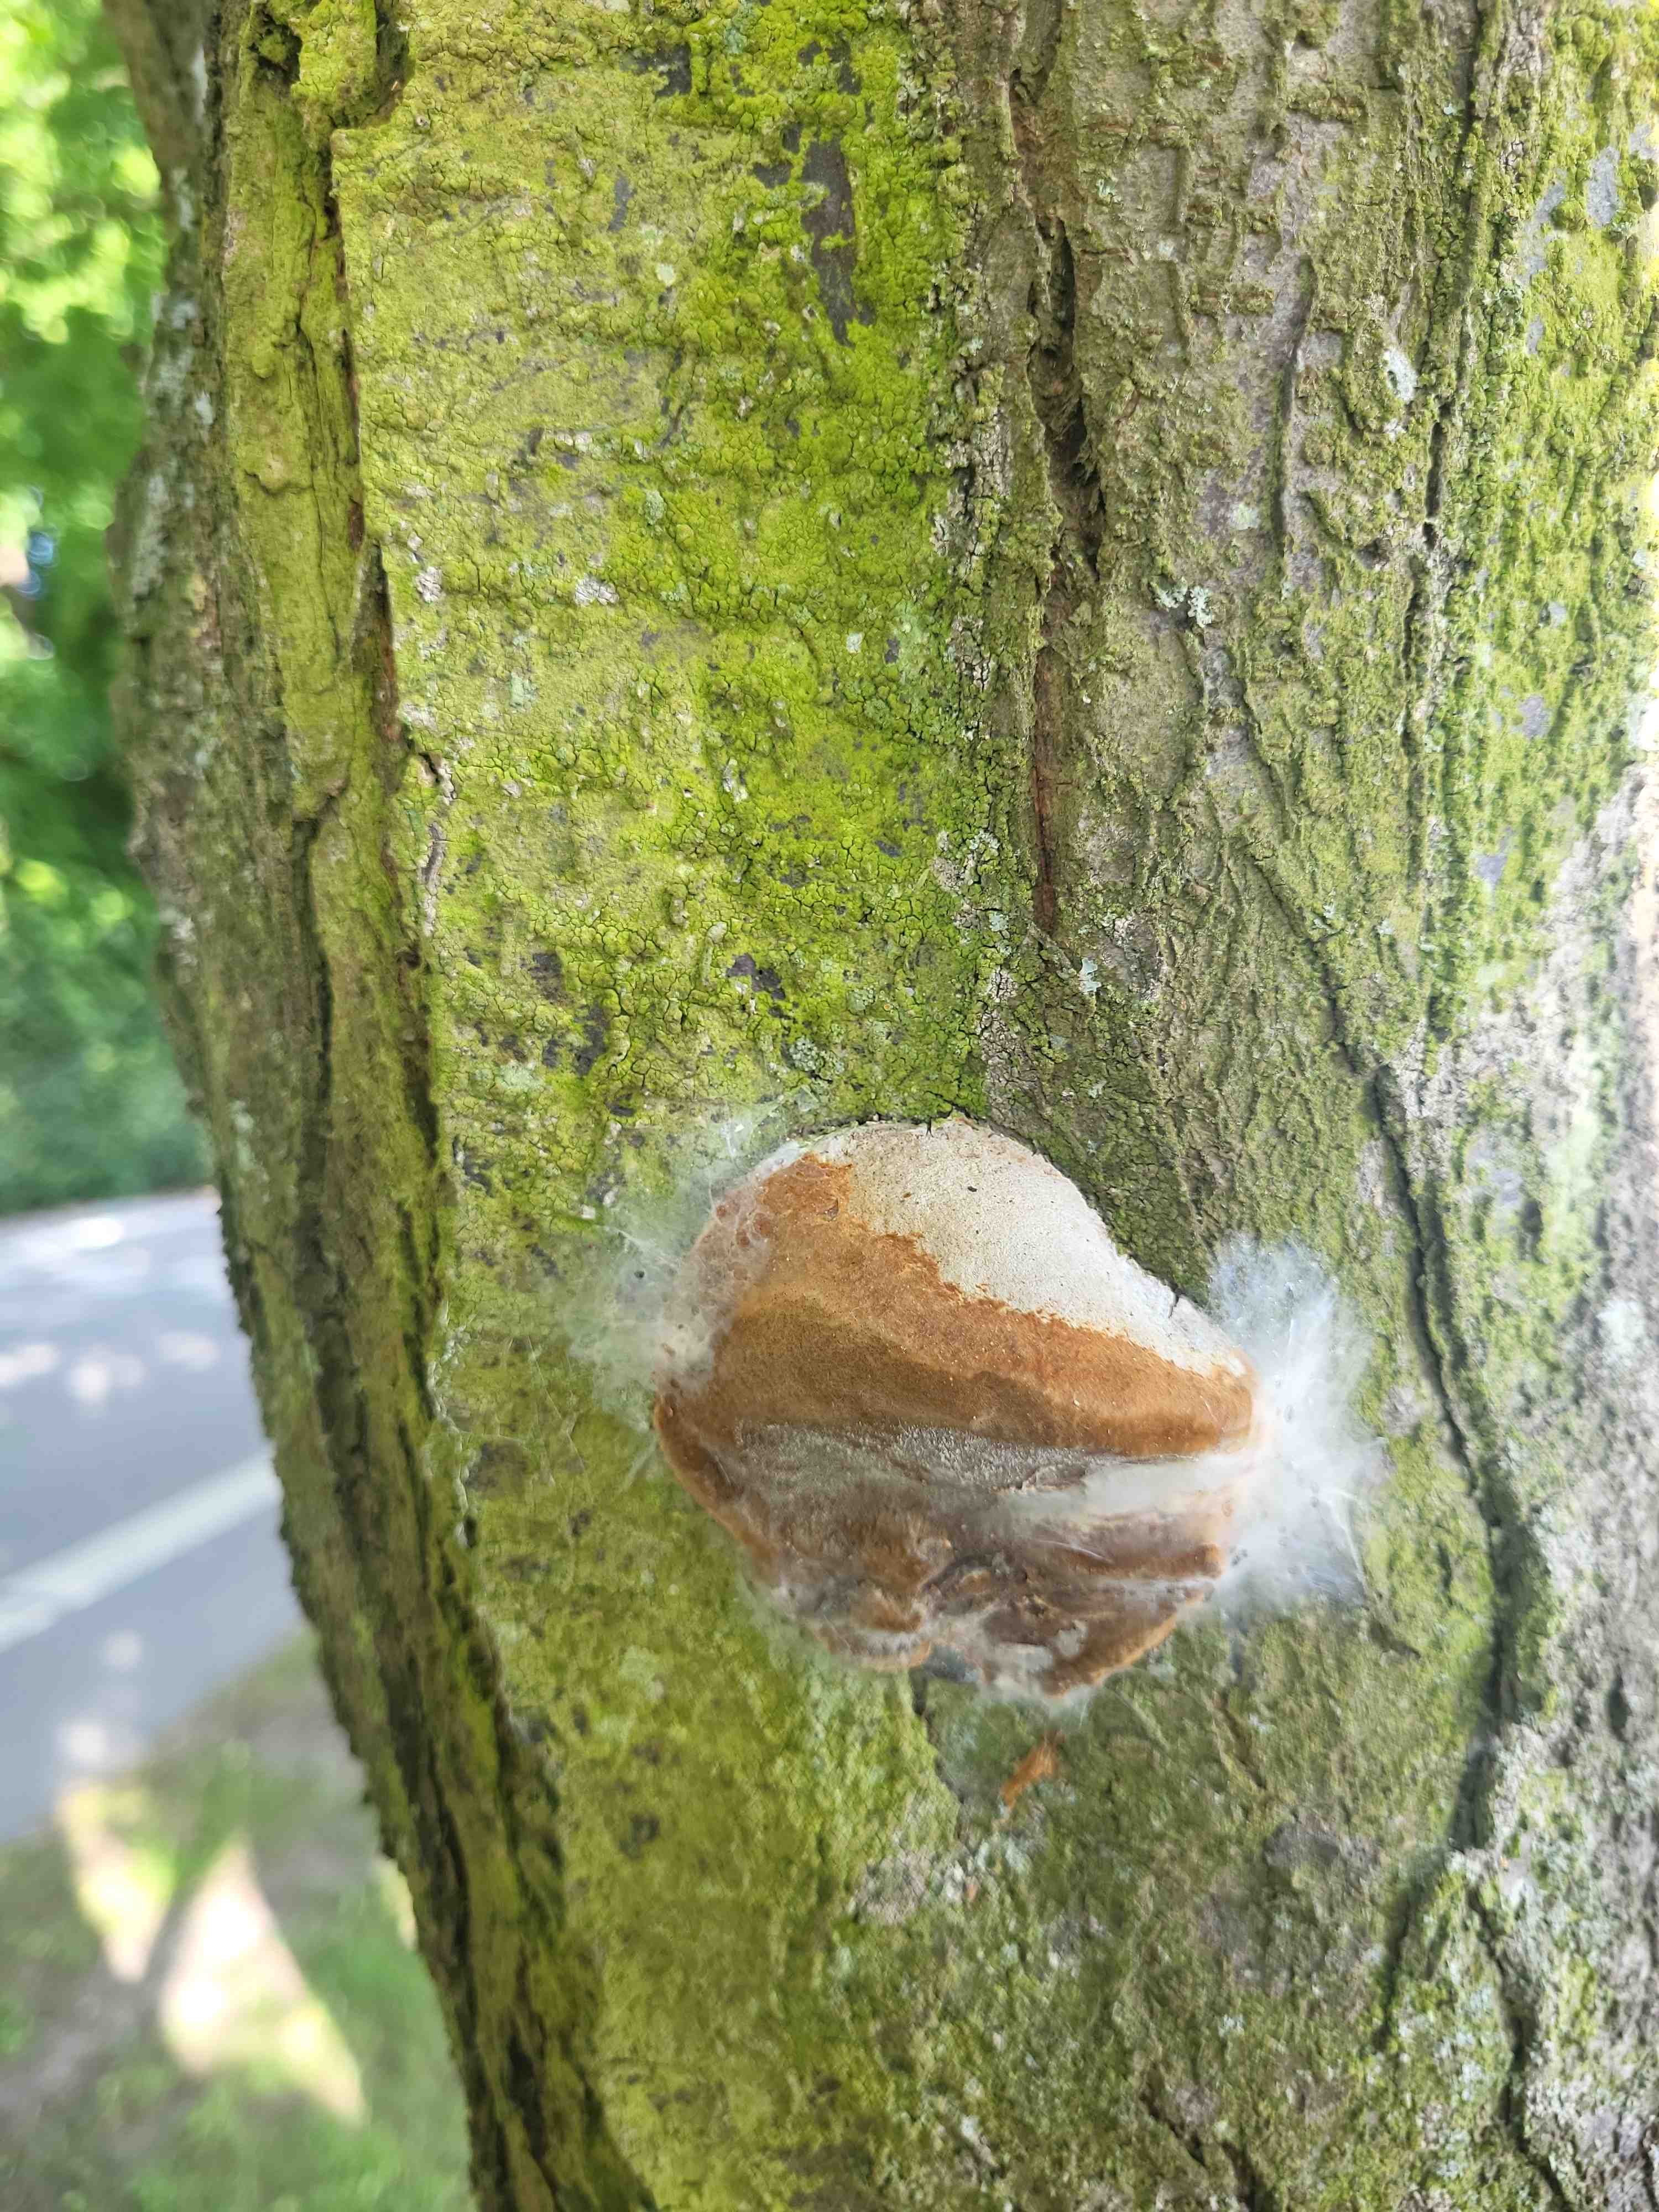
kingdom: Fungi
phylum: Basidiomycota
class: Agaricomycetes
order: Hymenochaetales
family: Hymenochaetaceae
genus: Phellinus
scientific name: Phellinus pomaceus
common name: blomme-ildporesvamp
